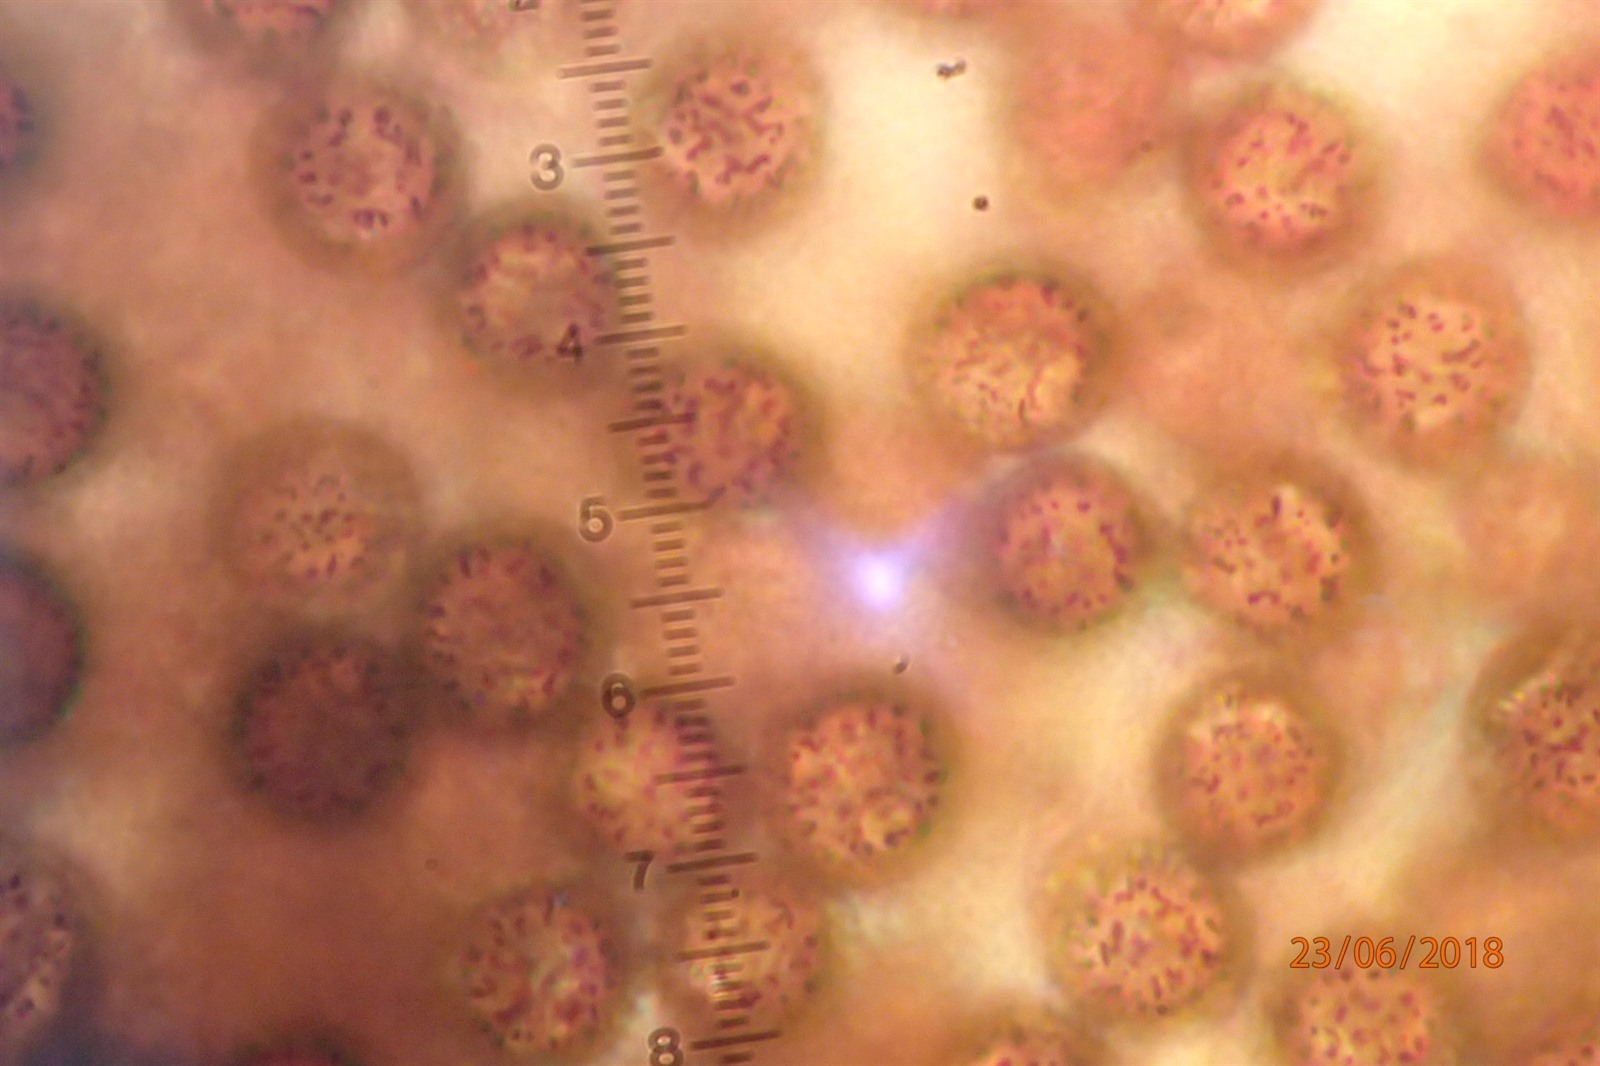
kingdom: Protozoa
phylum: Mycetozoa
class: Myxomycetes
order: Stemonitidales
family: Stemonitidaceae
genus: Lamproderma
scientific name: Lamproderma spinulosporum
